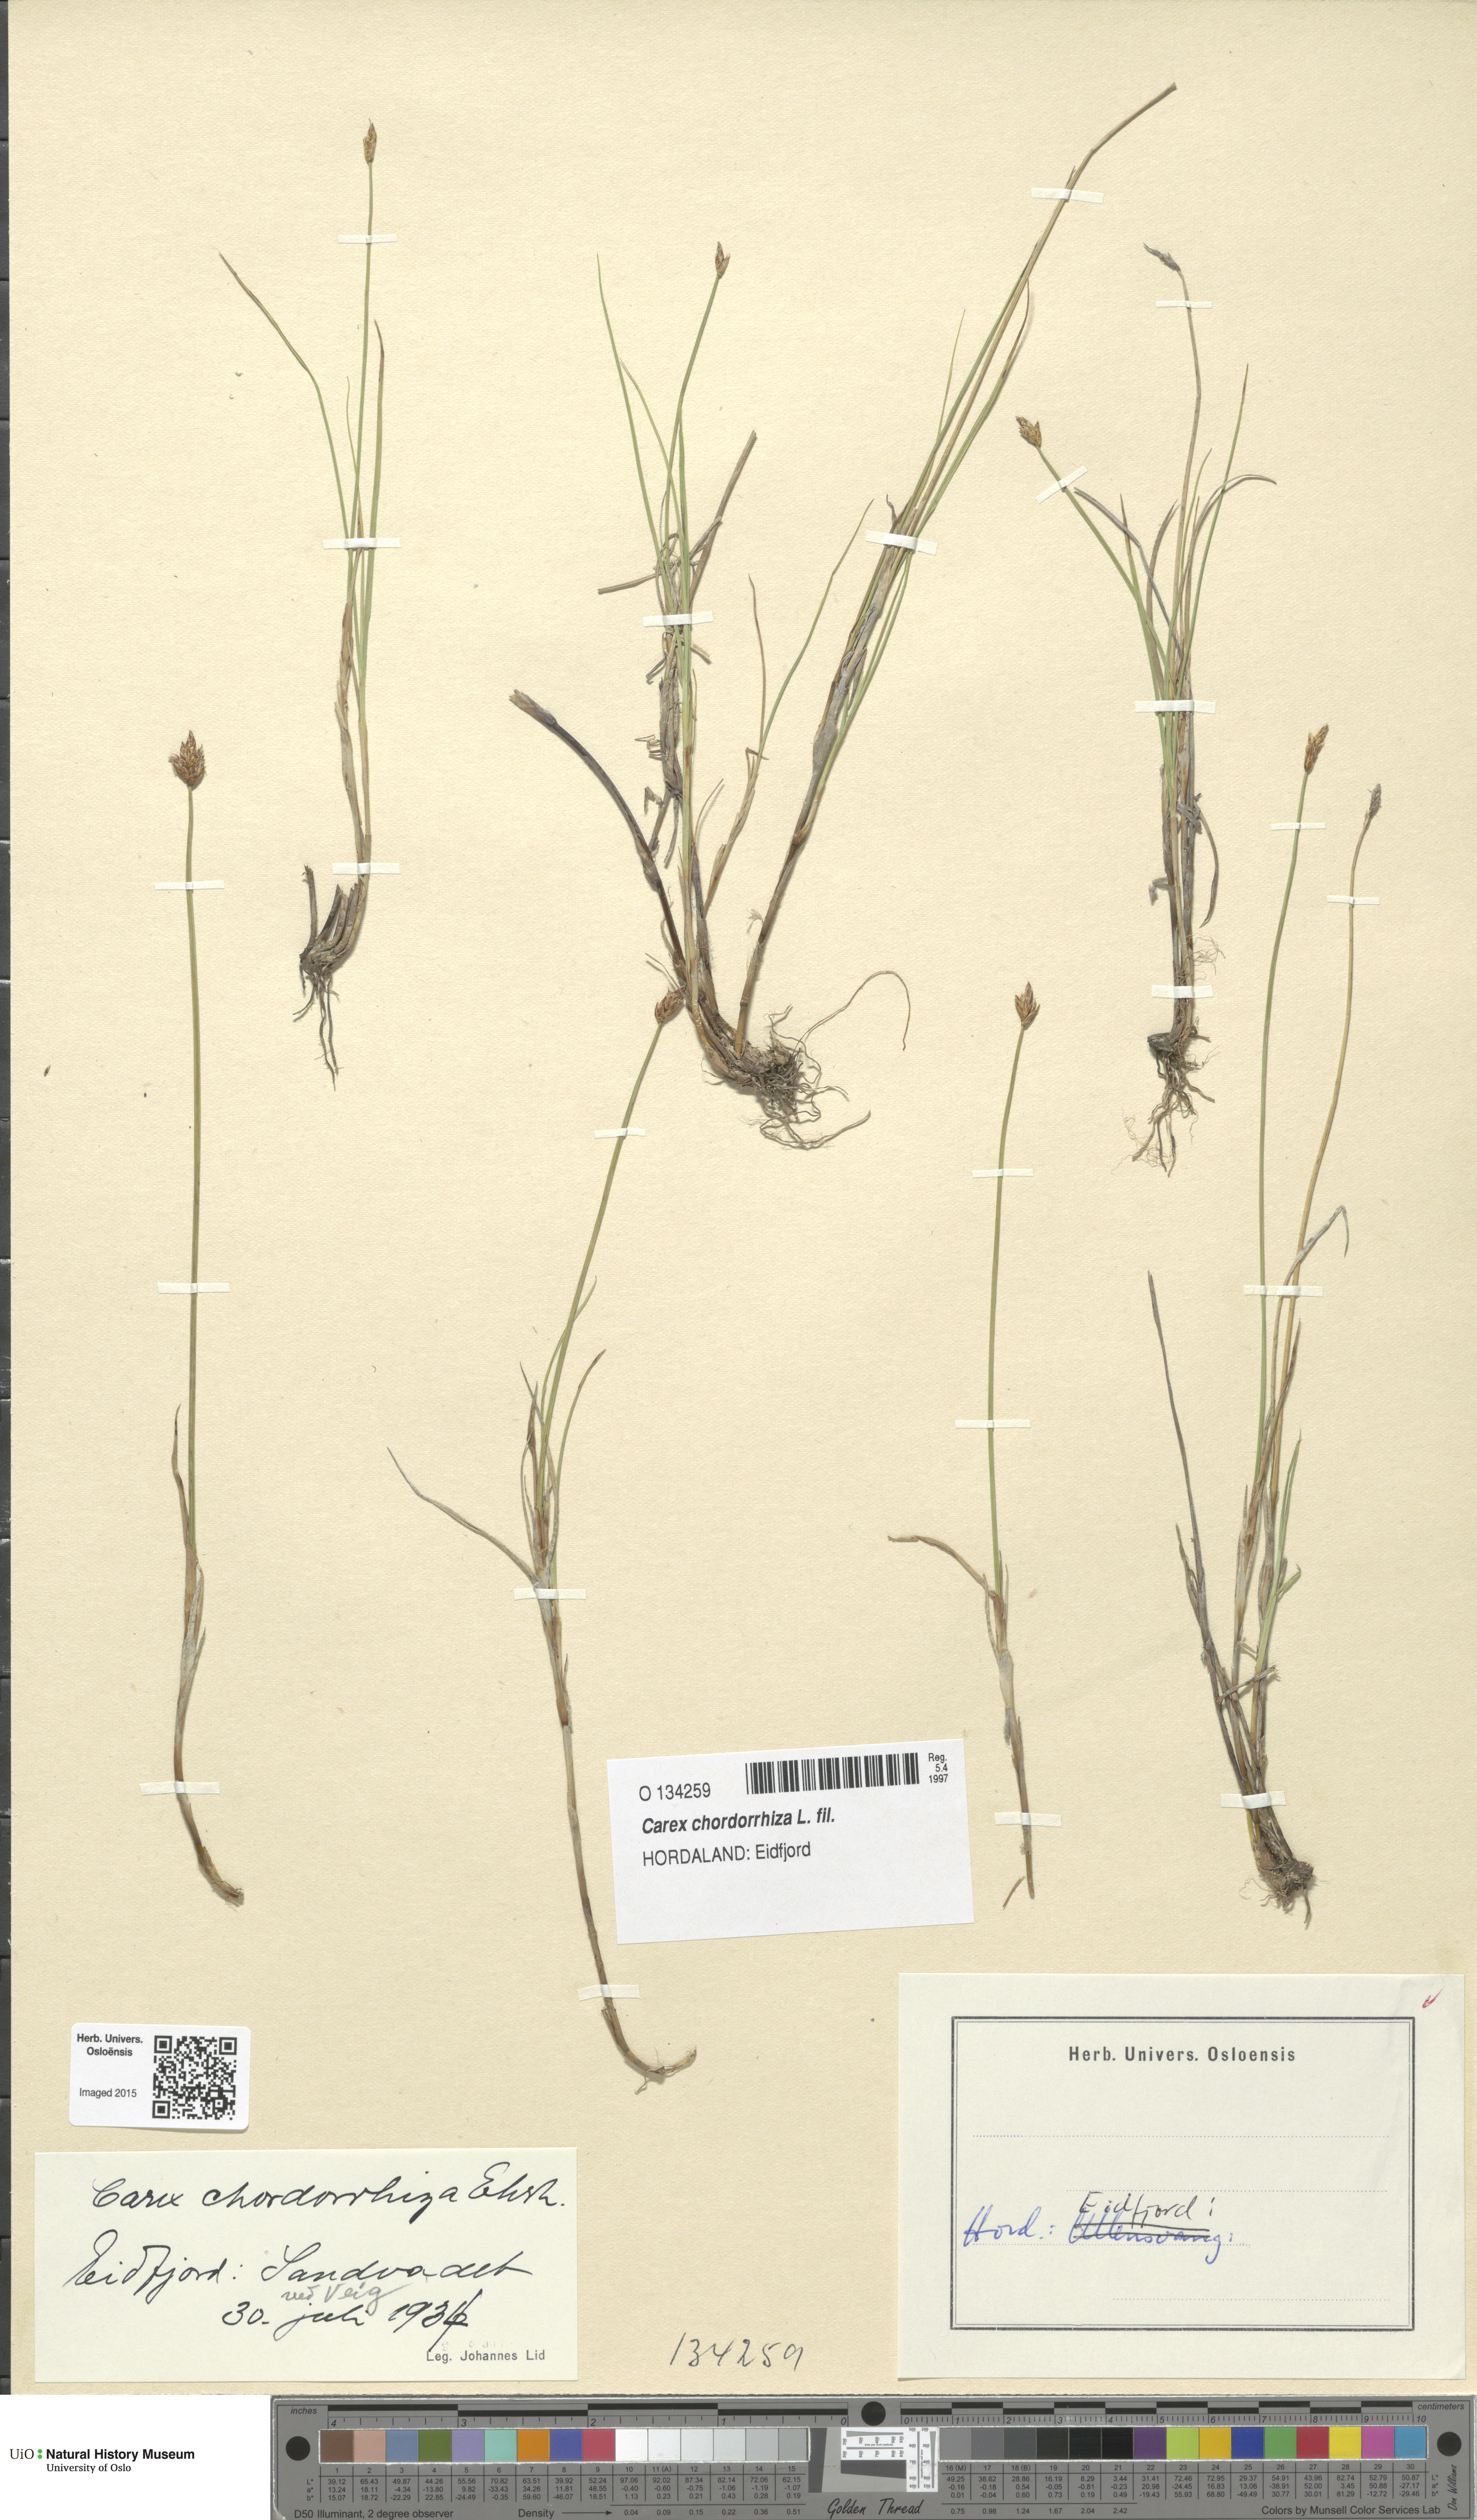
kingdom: Plantae
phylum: Tracheophyta
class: Liliopsida
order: Poales
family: Cyperaceae
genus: Carex
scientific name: Carex chordorrhiza
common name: String sedge
